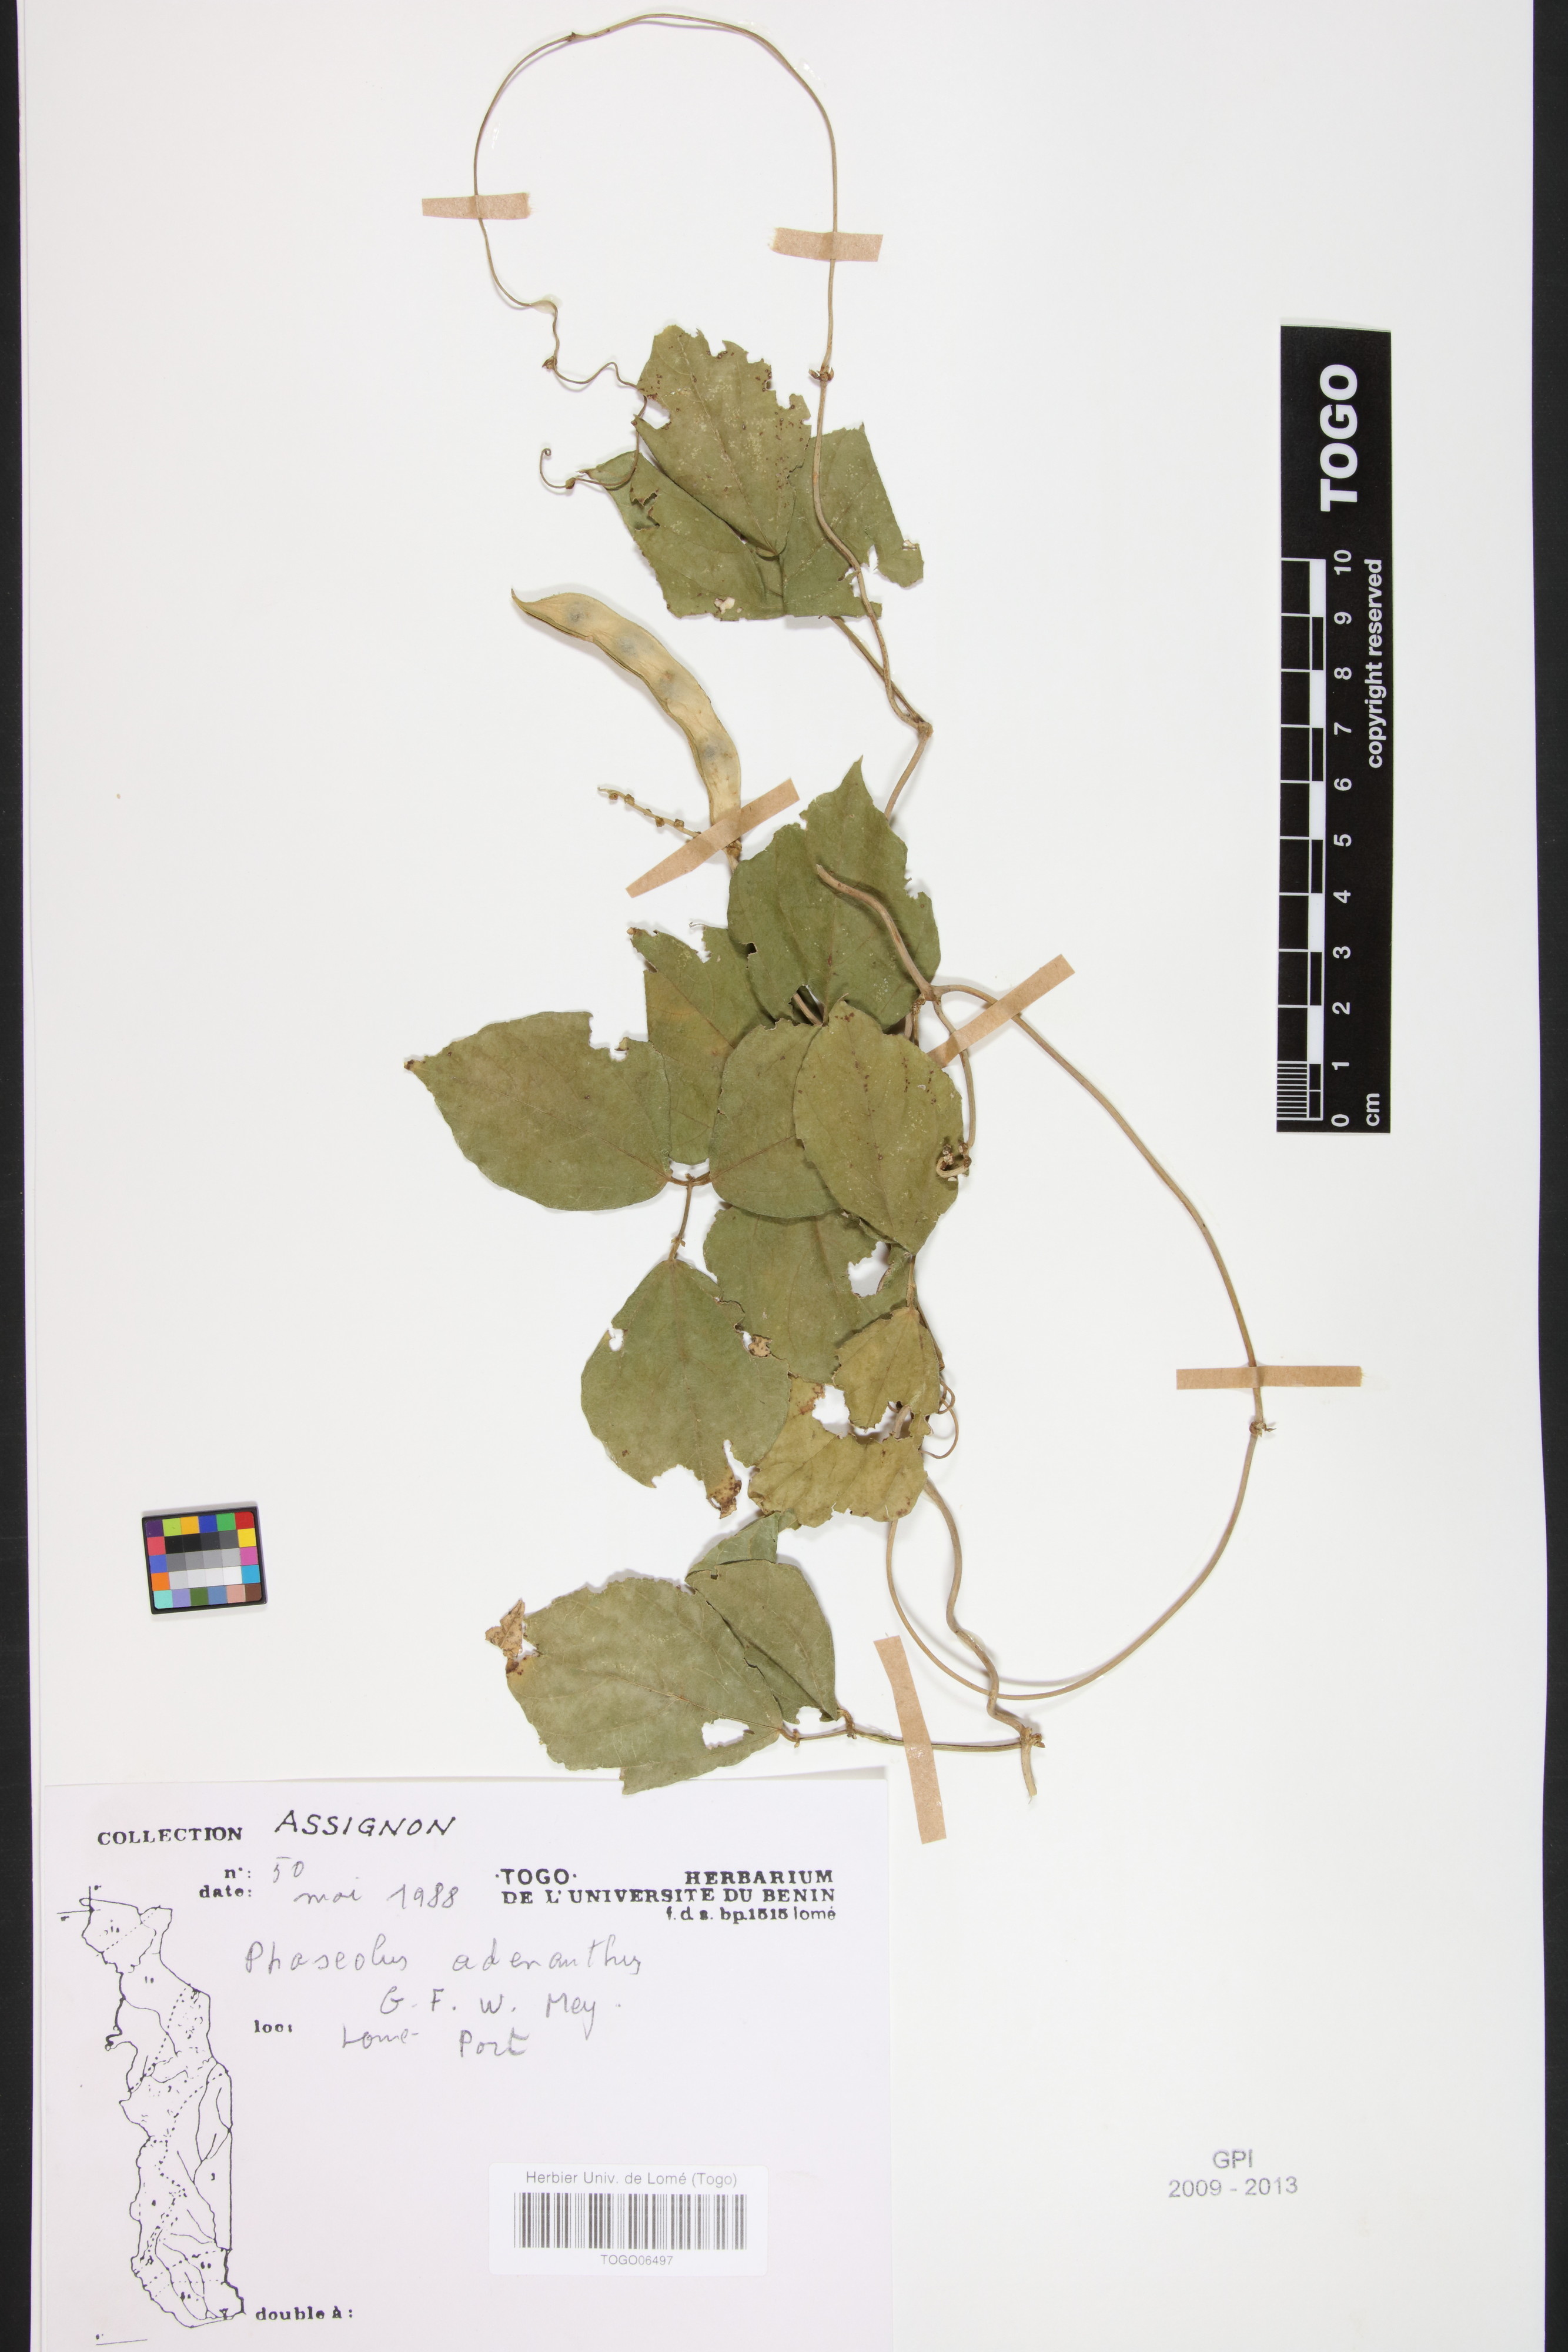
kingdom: Plantae
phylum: Tracheophyta
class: Magnoliopsida
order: Fabales
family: Fabaceae
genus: Leptospron
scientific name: Leptospron adenanthum
